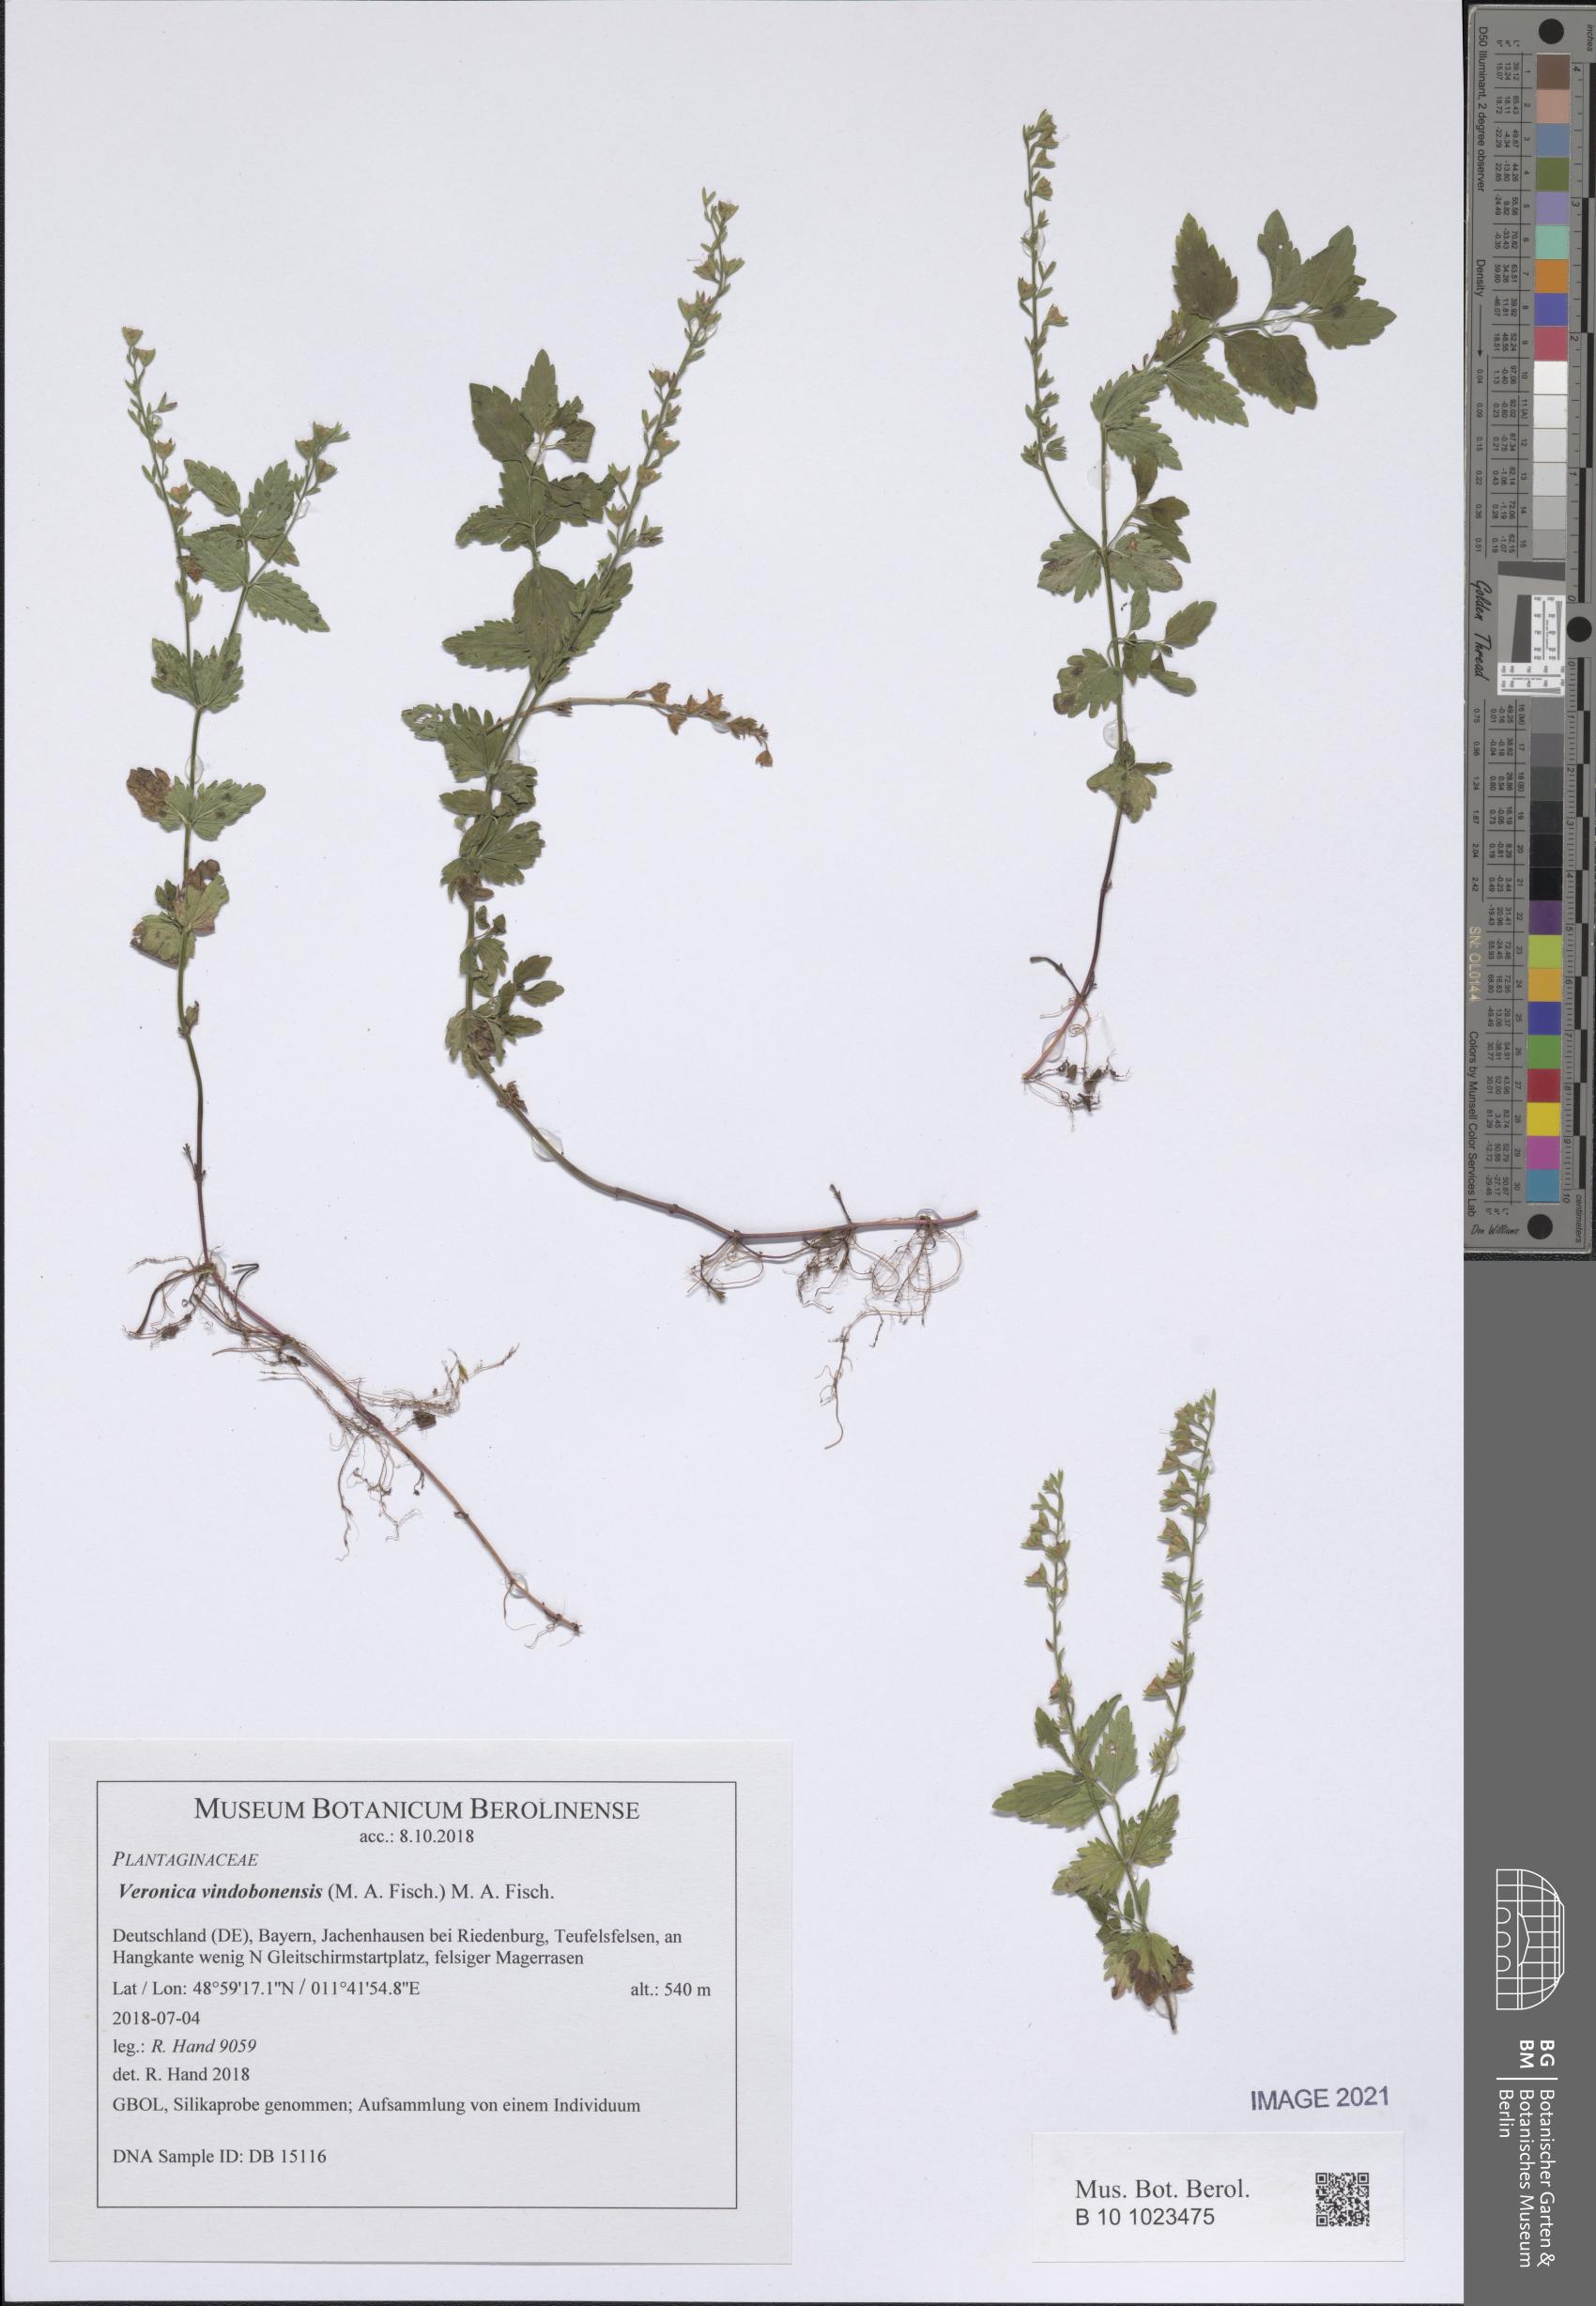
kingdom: Plantae
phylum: Tracheophyta
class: Magnoliopsida
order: Lamiales
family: Plantaginaceae
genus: Veronica
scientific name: Veronica vindobonensis
